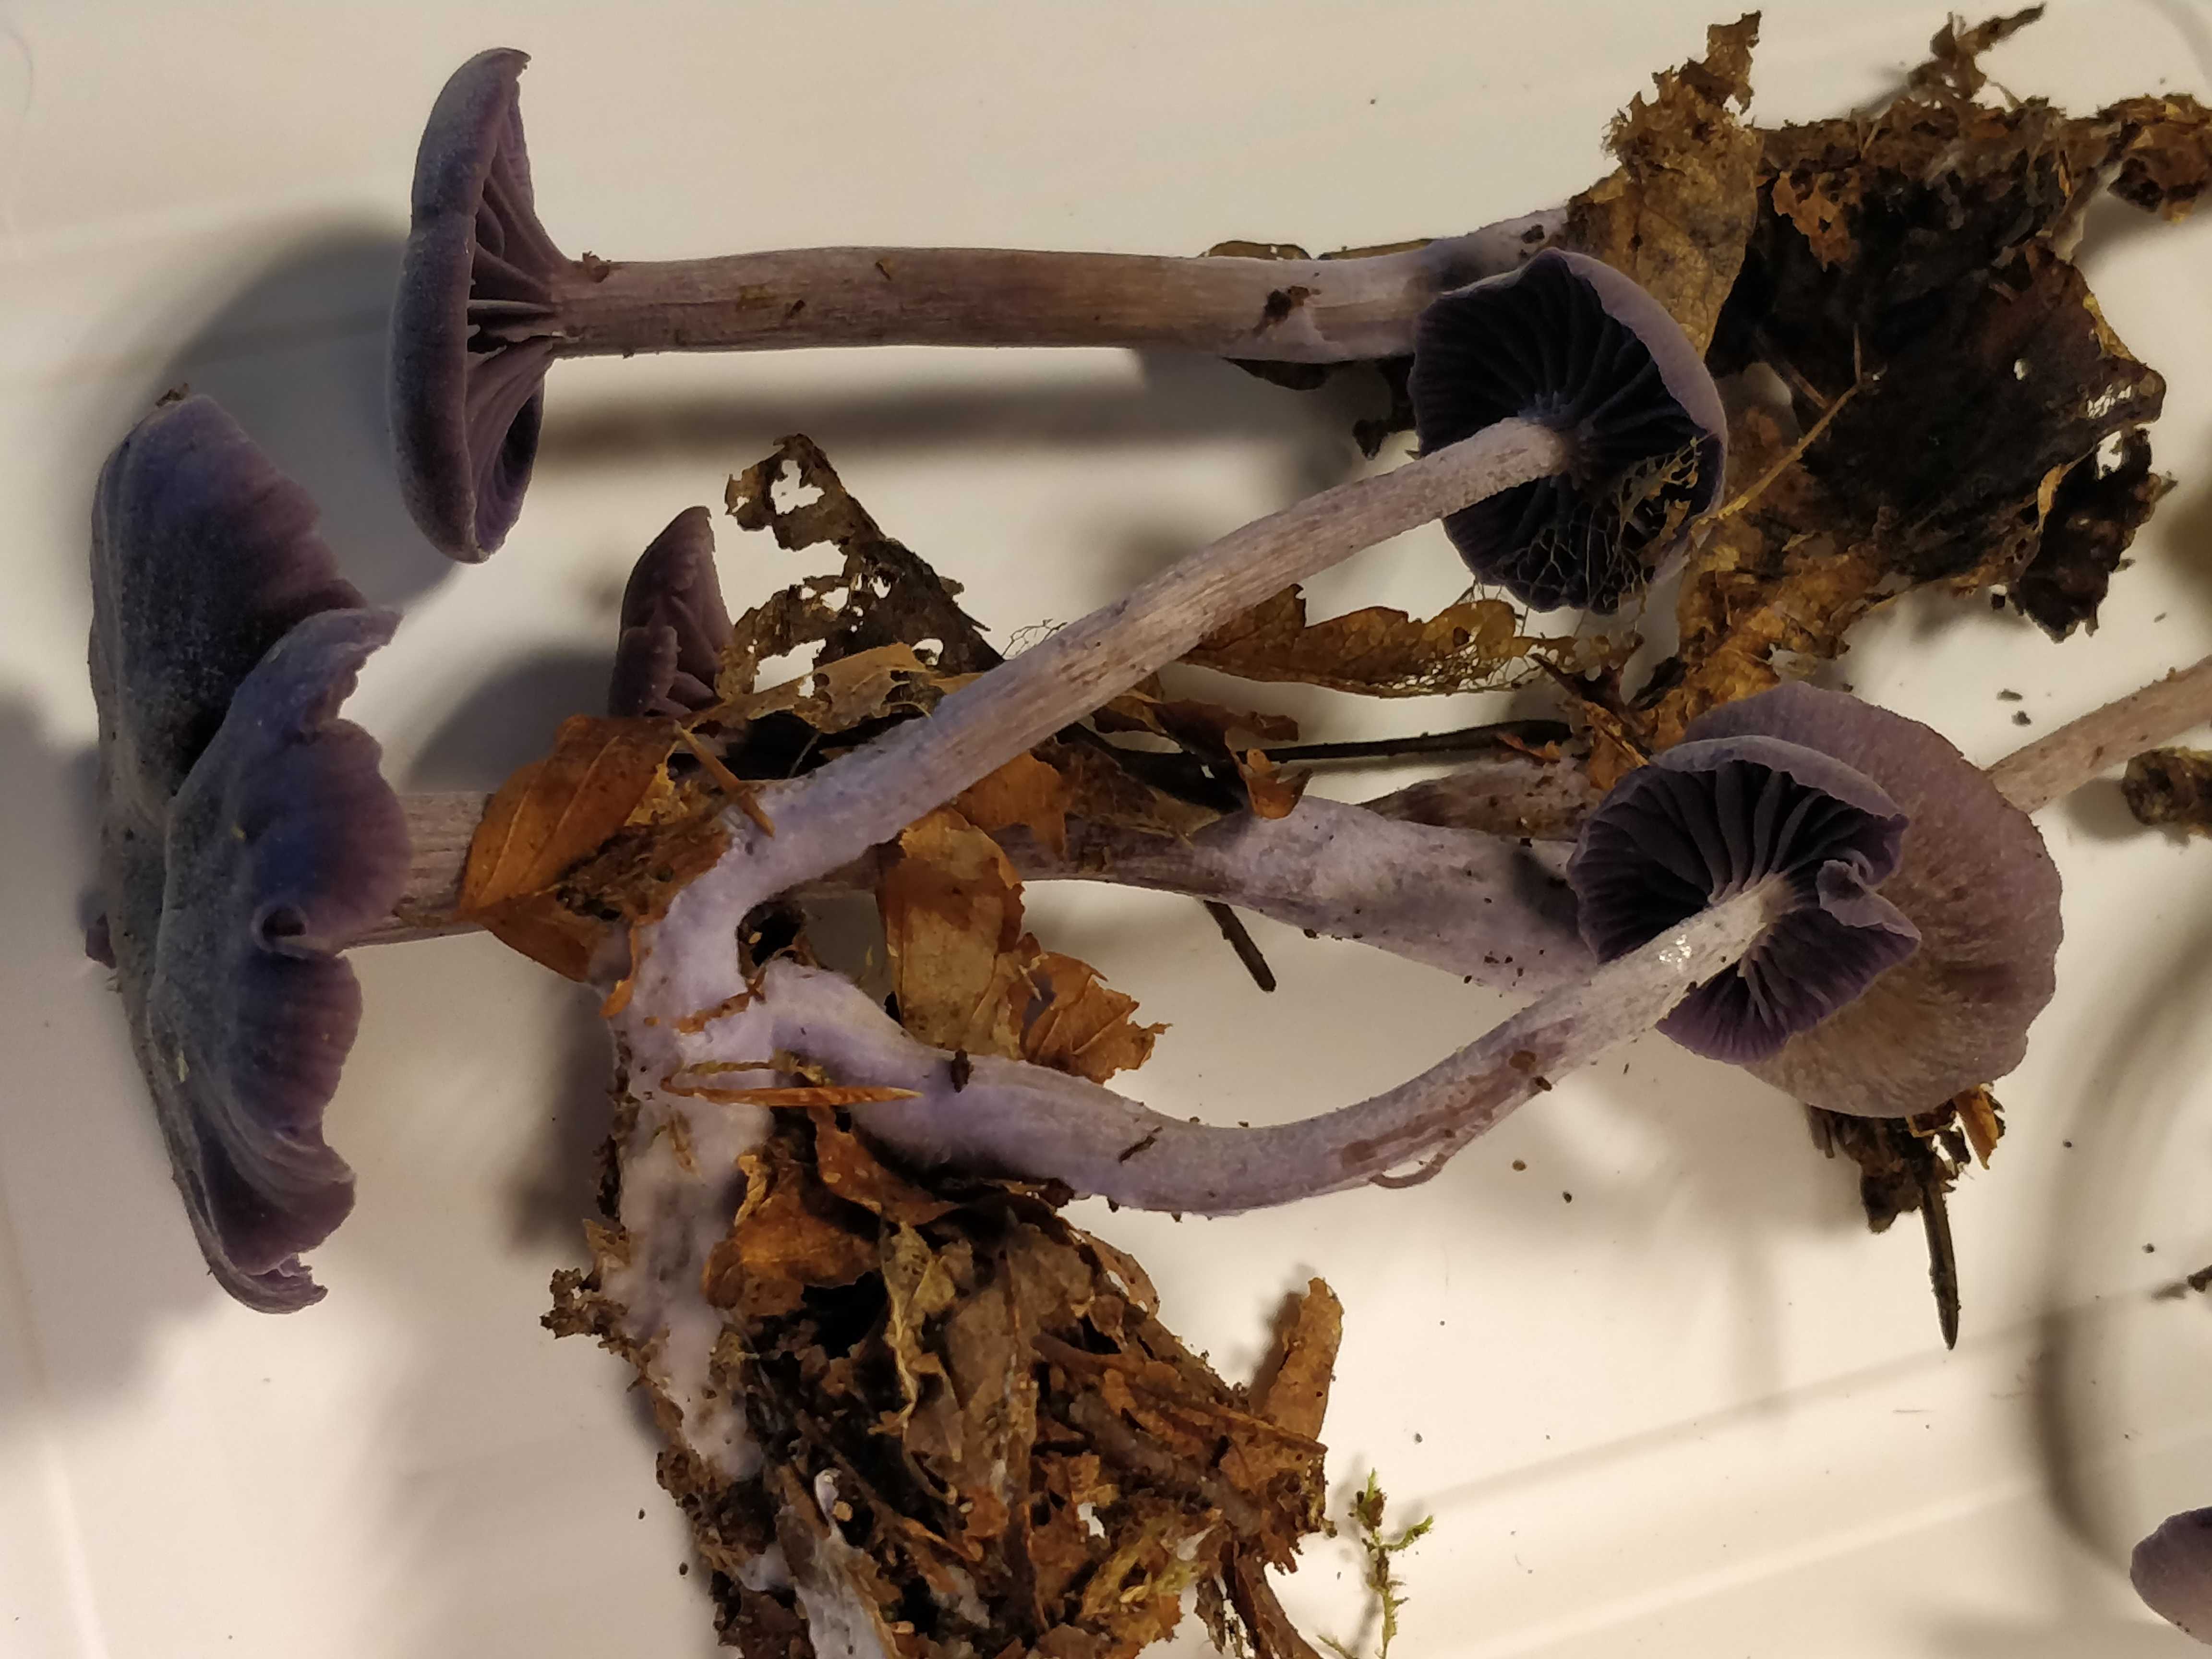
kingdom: Fungi
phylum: Basidiomycota
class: Agaricomycetes
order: Agaricales
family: Hydnangiaceae
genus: Laccaria
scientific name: Laccaria amethystina
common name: violet ametysthat
